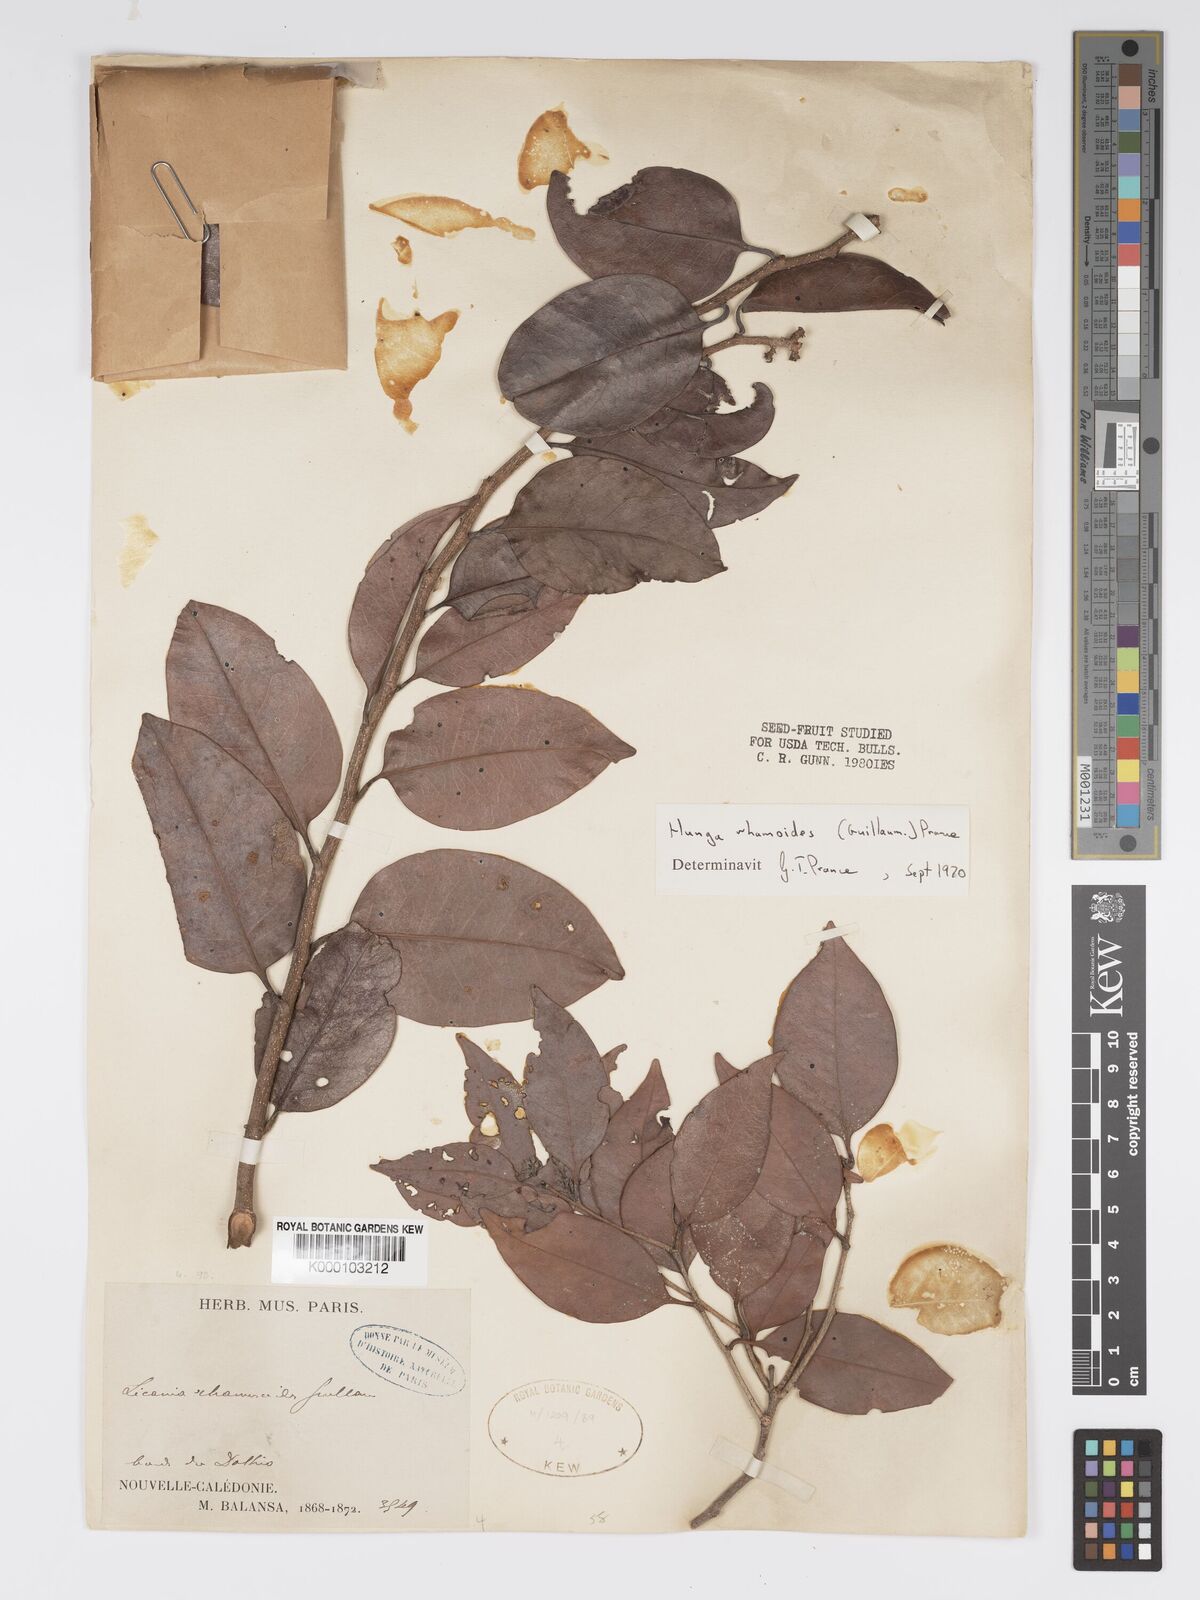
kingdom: Plantae
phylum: Tracheophyta
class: Magnoliopsida
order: Malpighiales
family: Chrysobalanaceae
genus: Hunga
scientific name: Hunga rhamnoides
